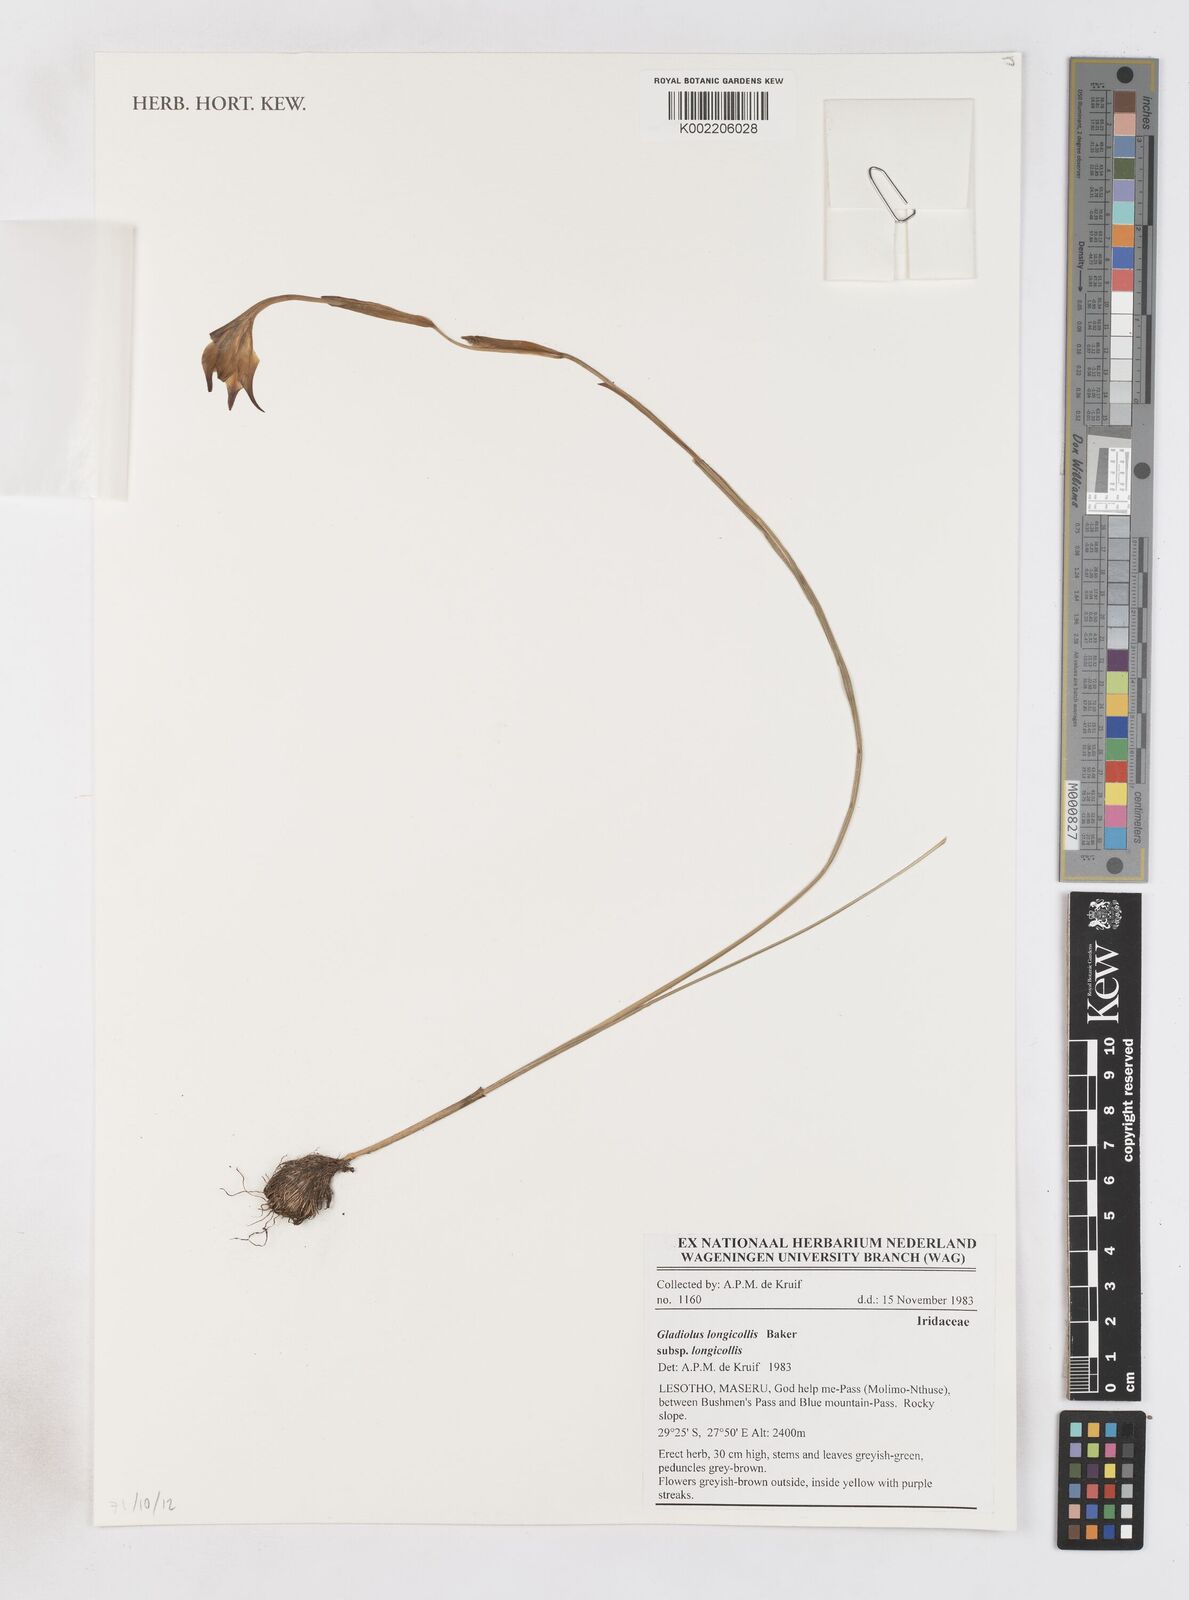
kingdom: Plantae
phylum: Tracheophyta
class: Liliopsida
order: Asparagales
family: Iridaceae
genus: Gladiolus
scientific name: Gladiolus longicollis
